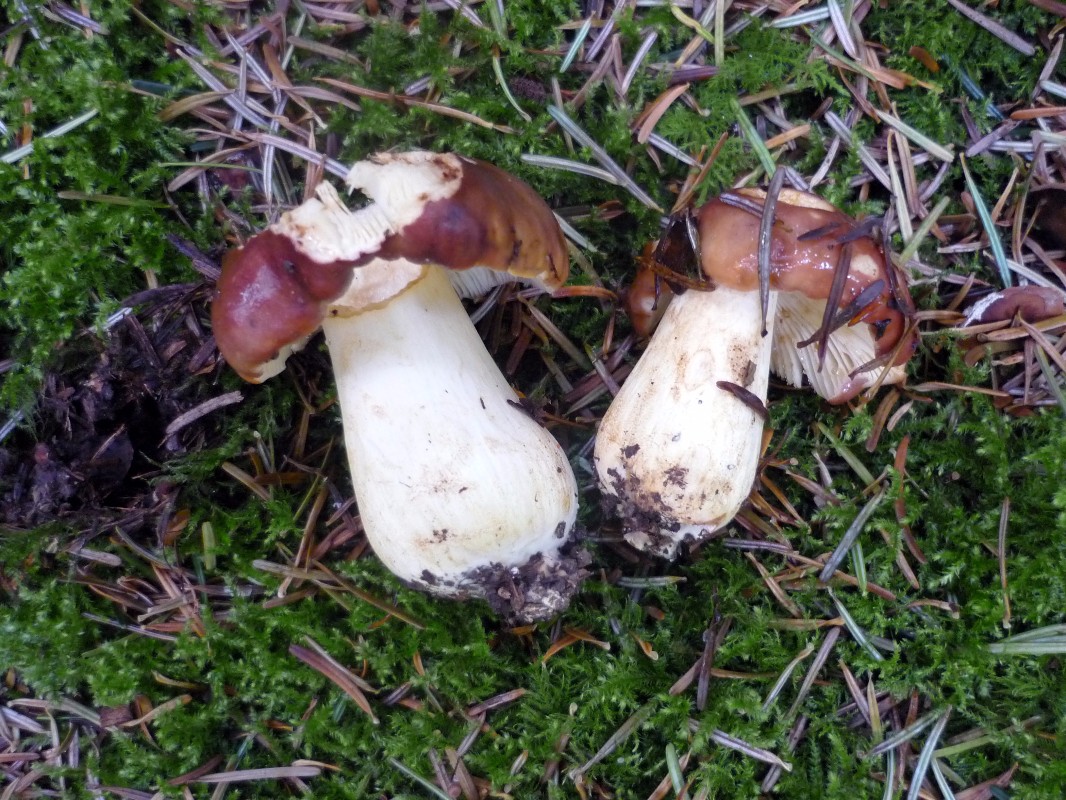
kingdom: Fungi
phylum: Basidiomycota
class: Agaricomycetes
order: Russulales
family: Russulaceae
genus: Russula
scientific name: Russula viscida
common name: knippe-skørhat
